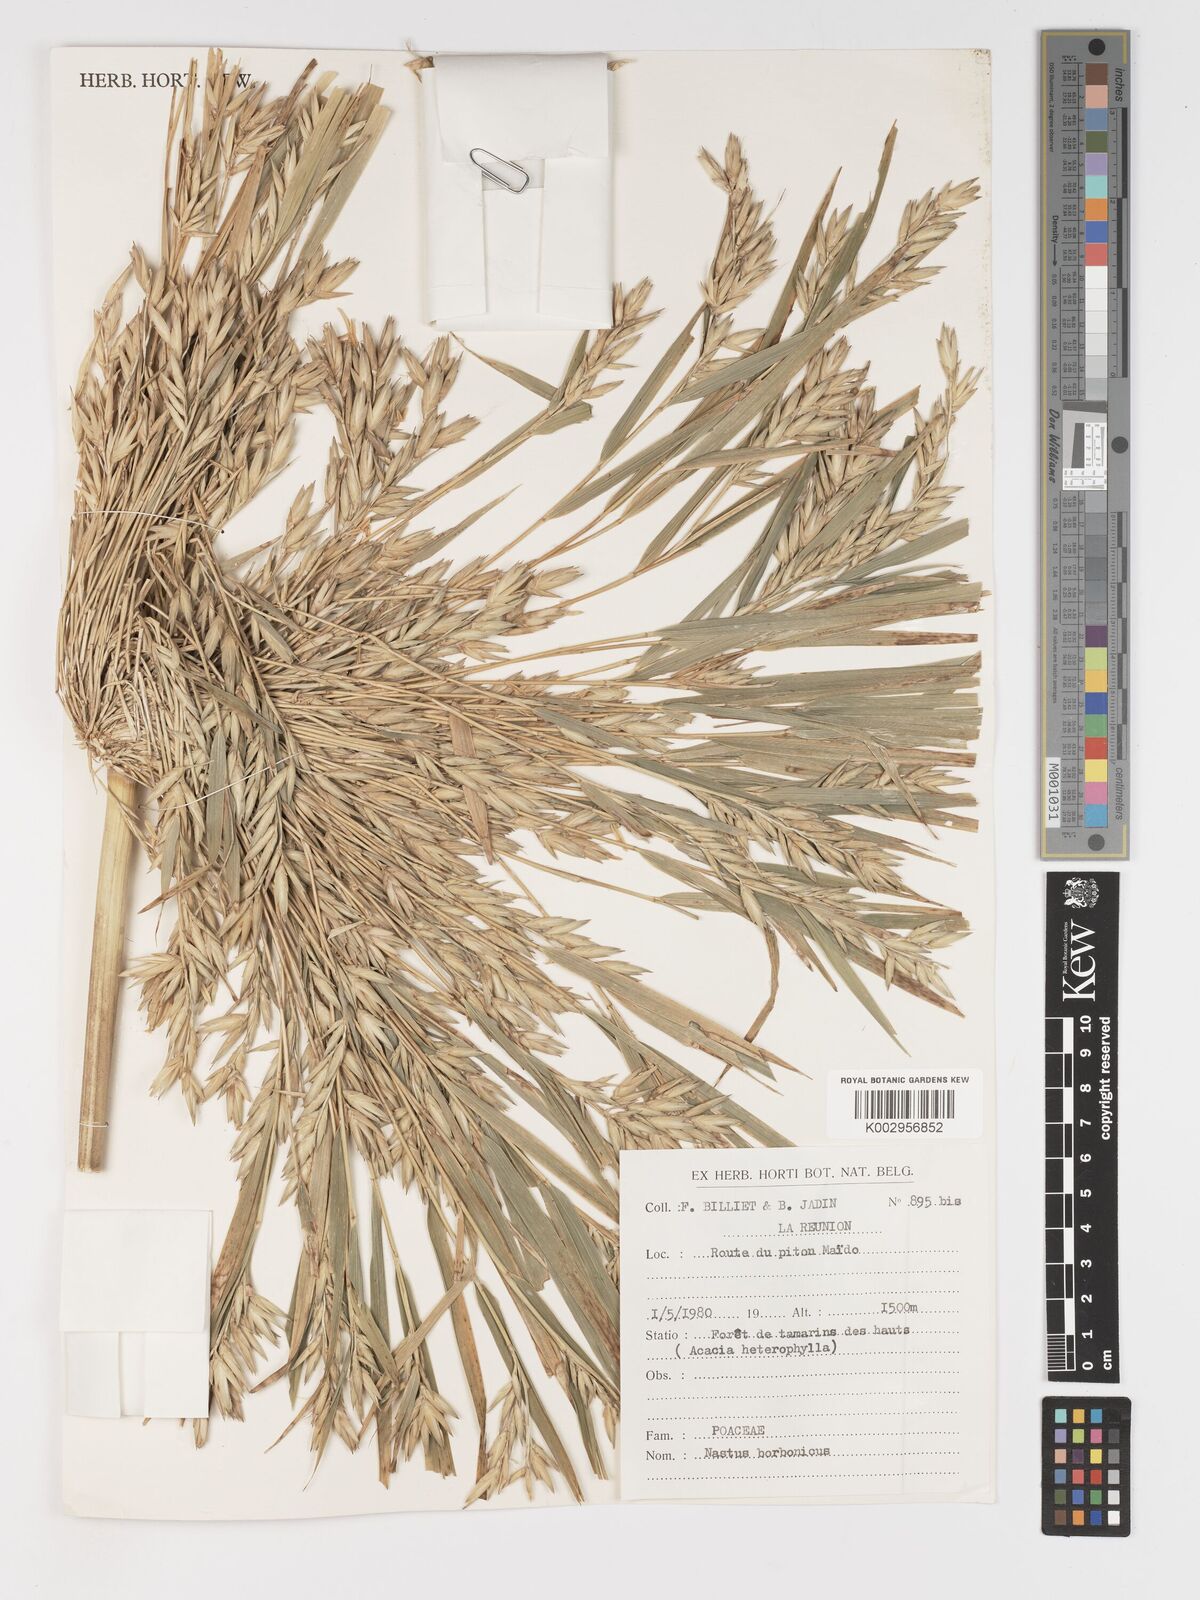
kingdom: Plantae
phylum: Tracheophyta
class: Liliopsida
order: Poales
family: Poaceae
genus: Nastus
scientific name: Nastus
